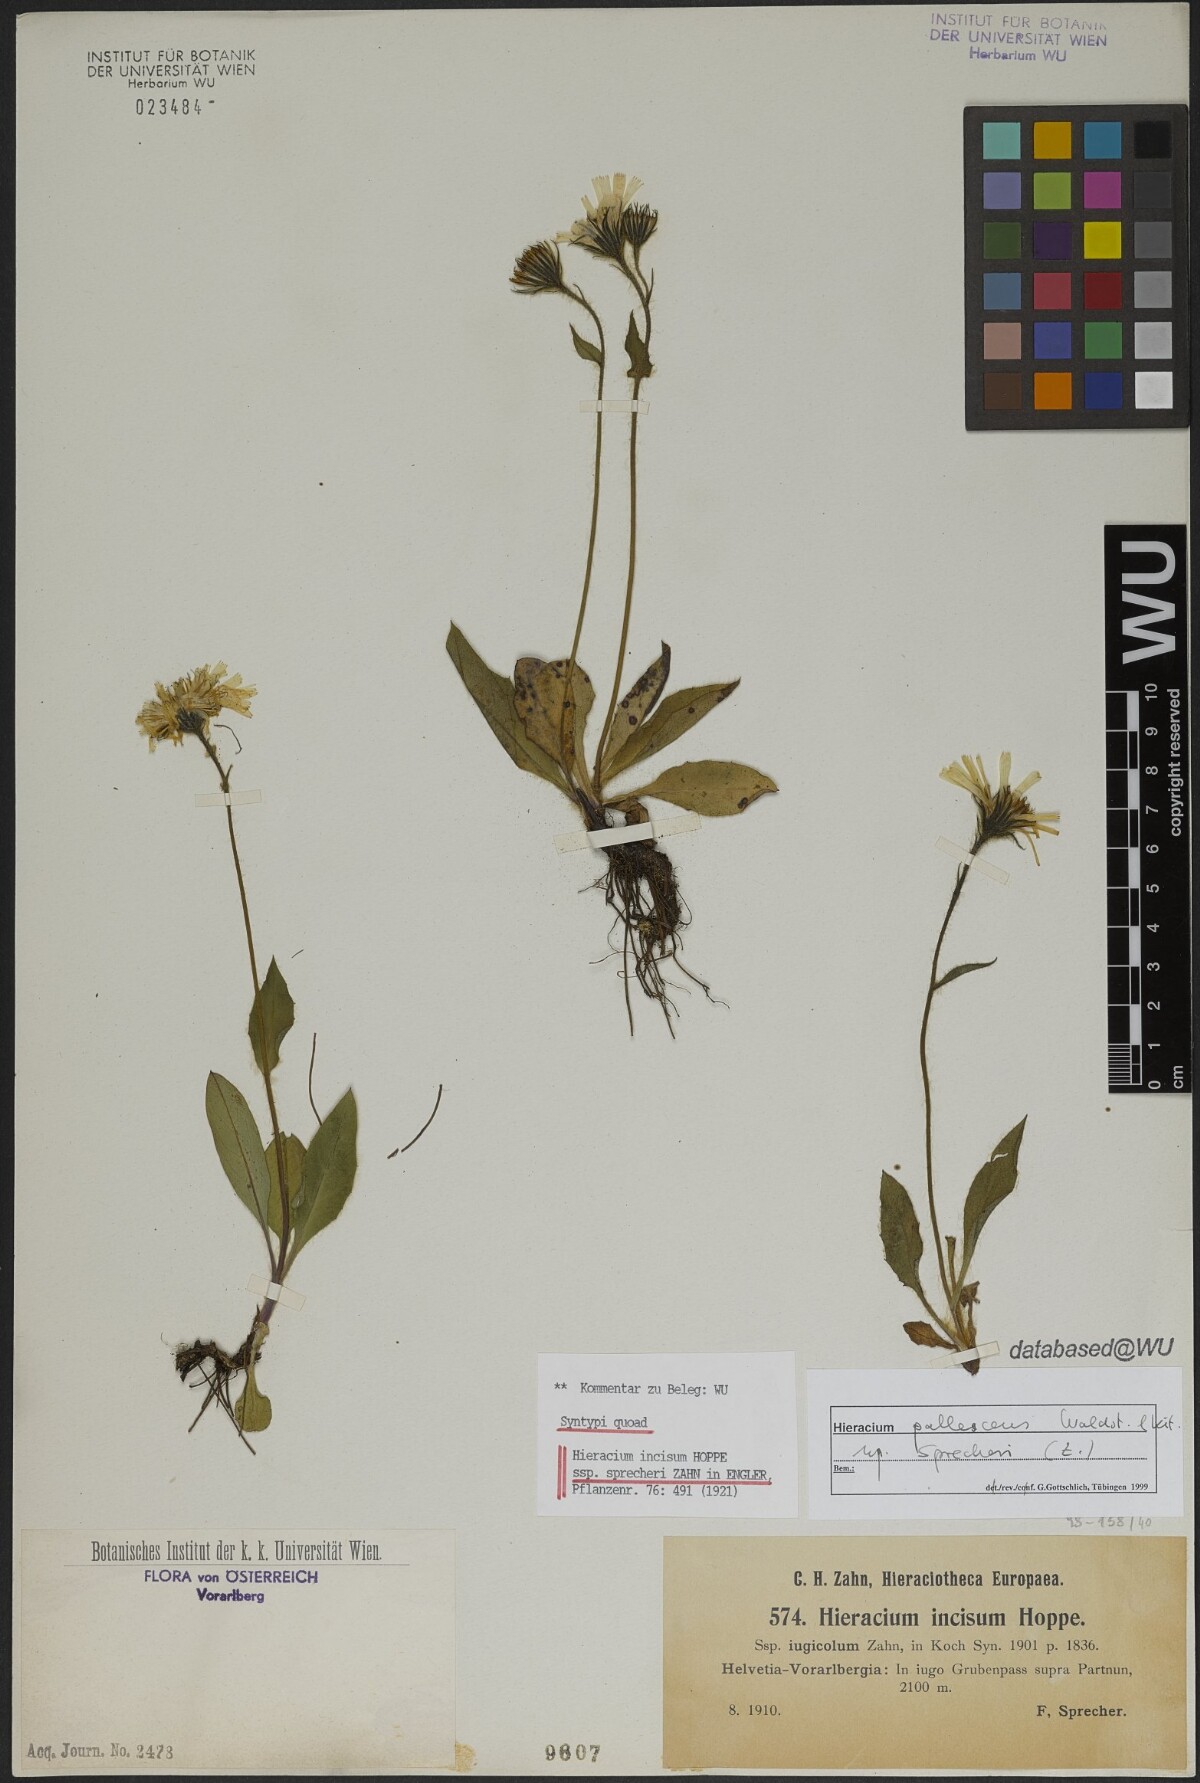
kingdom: Plantae
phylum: Tracheophyta
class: Magnoliopsida
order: Asterales
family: Asteraceae
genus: Hieracium
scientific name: Hieracium pallescens
